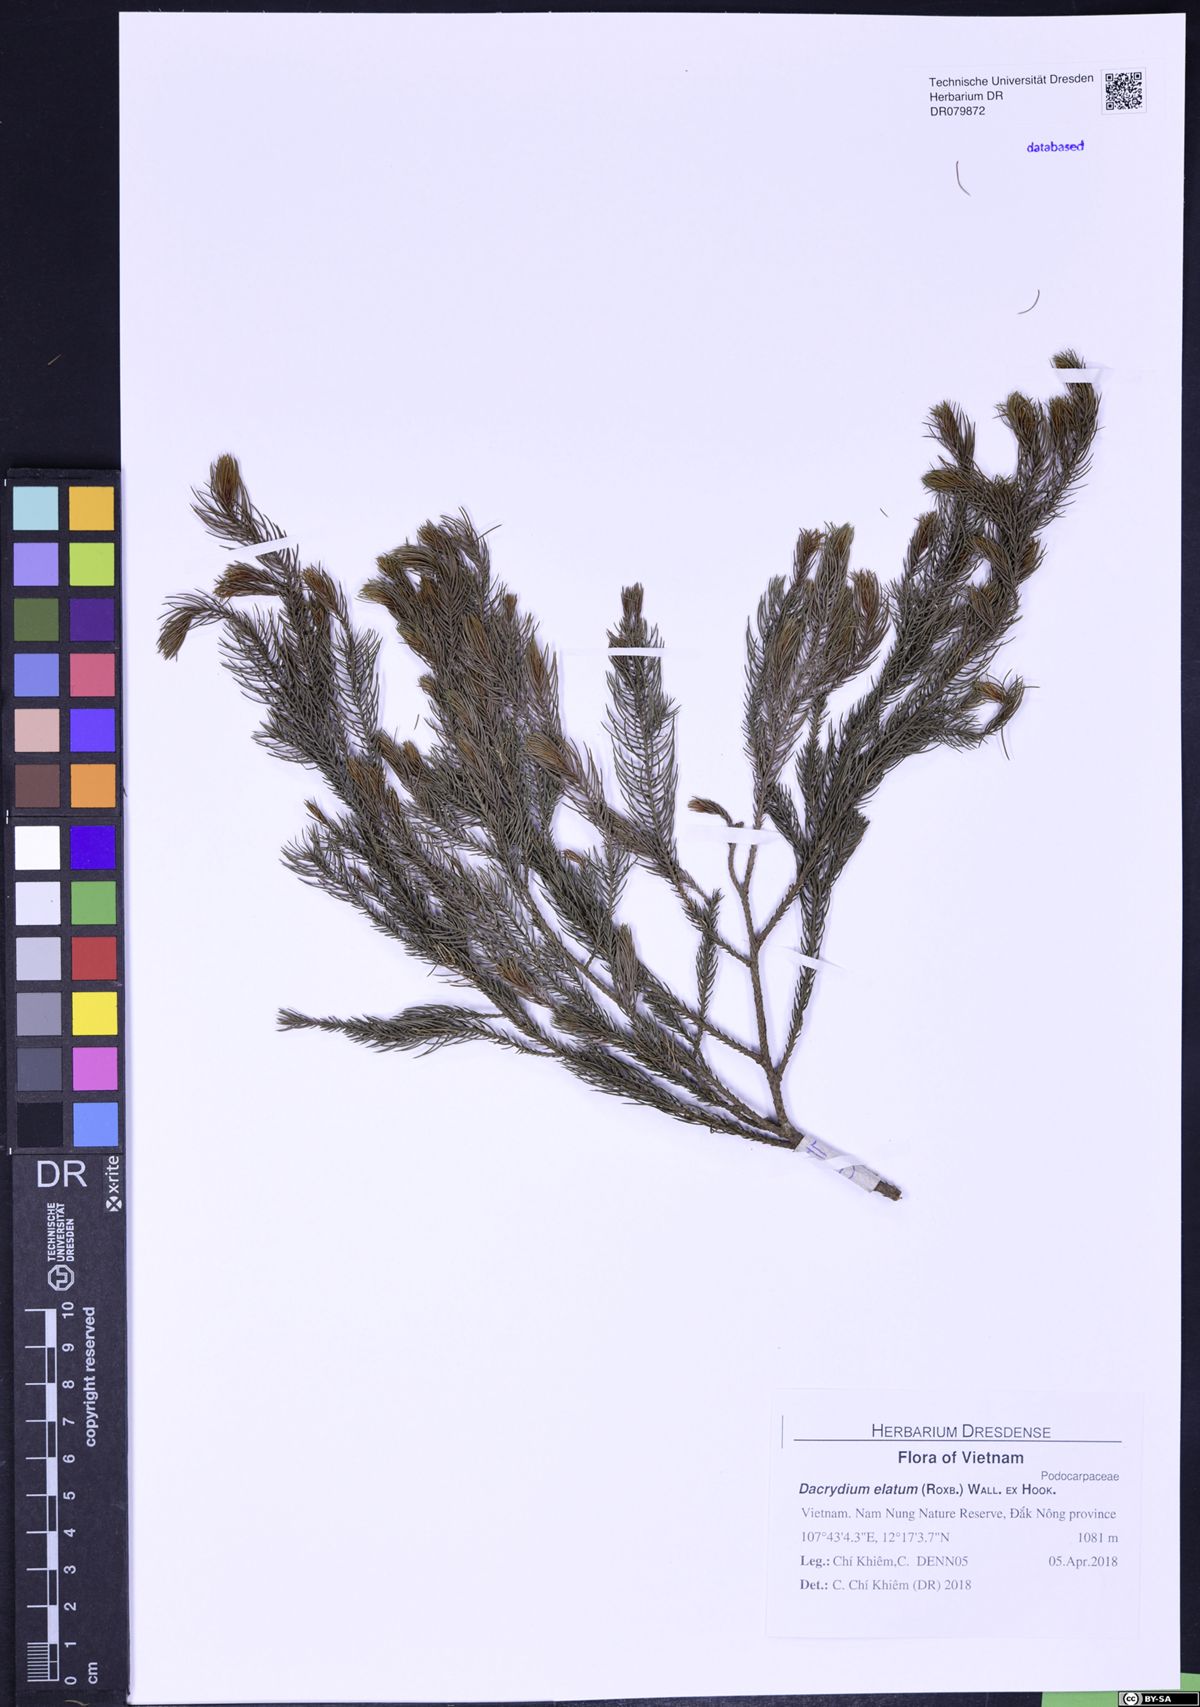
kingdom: Plantae
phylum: Tracheophyta
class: Pinopsida
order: Pinales
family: Podocarpaceae
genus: Dacrydium
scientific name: Dacrydium elatum
